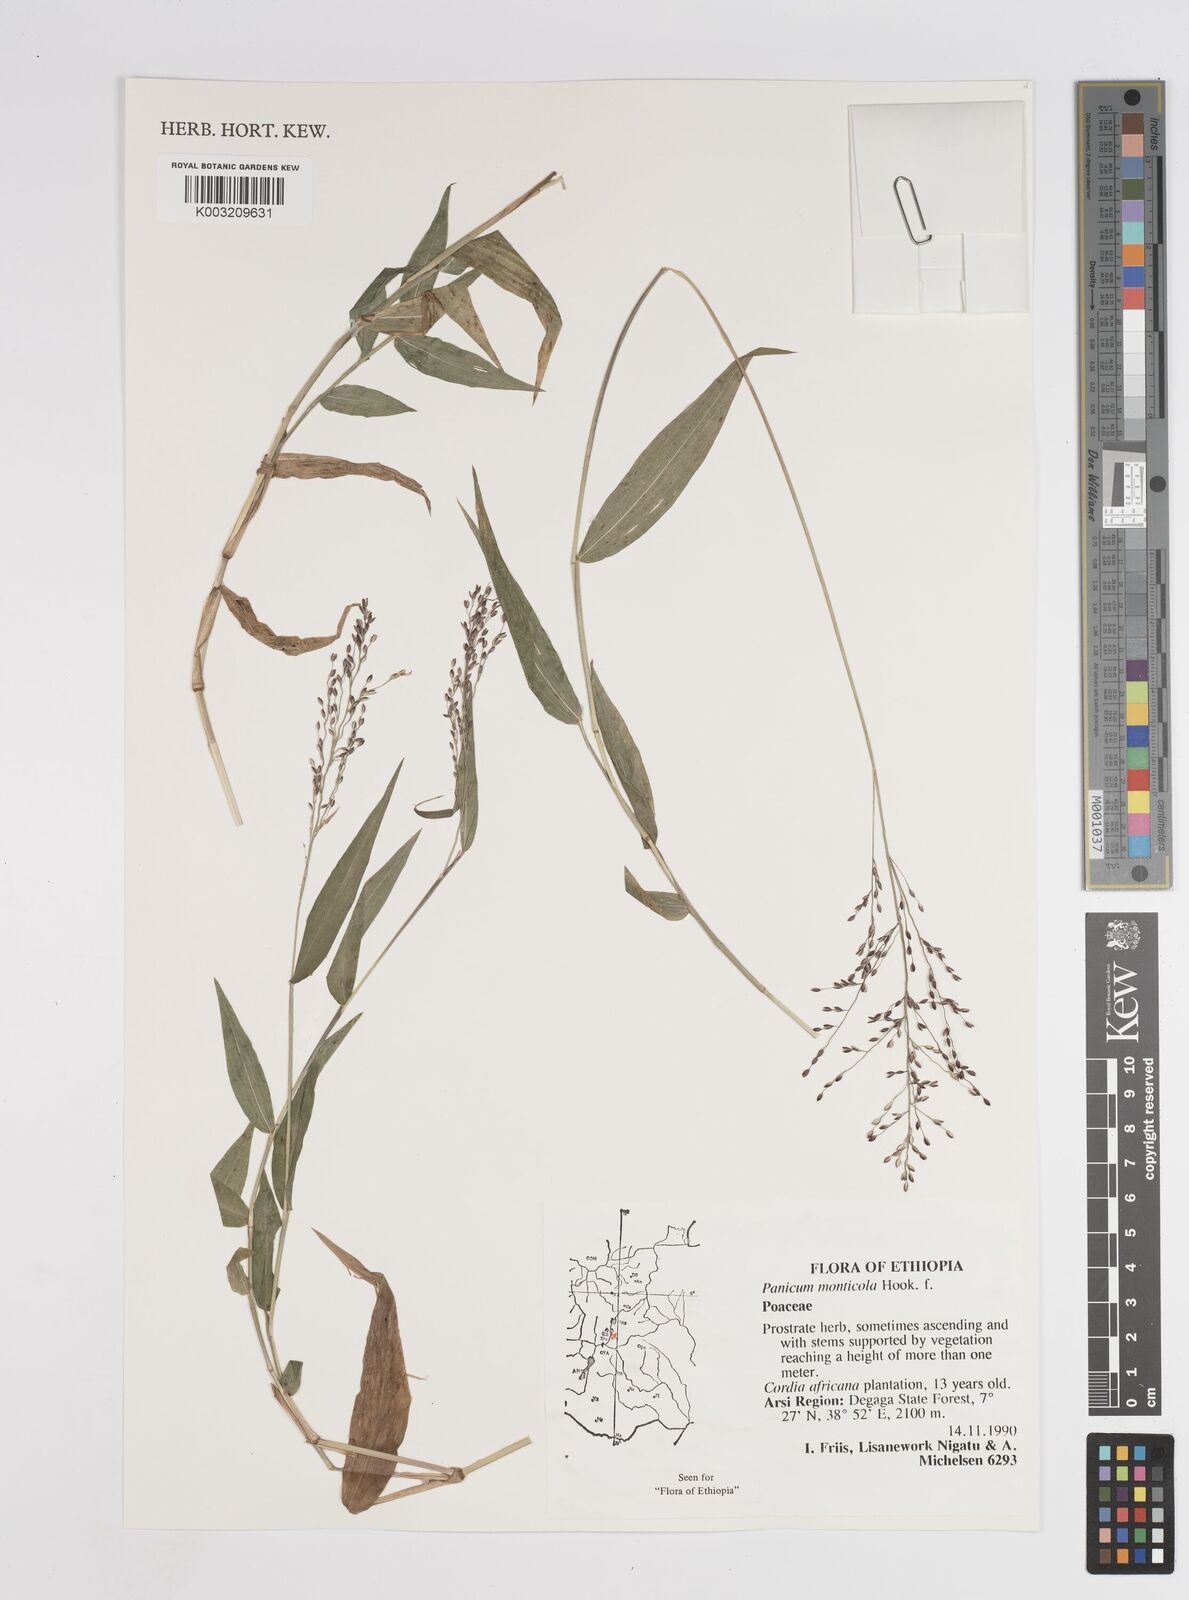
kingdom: Plantae
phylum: Tracheophyta
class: Liliopsida
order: Poales
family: Poaceae
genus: Panicum
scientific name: Panicum monticola
